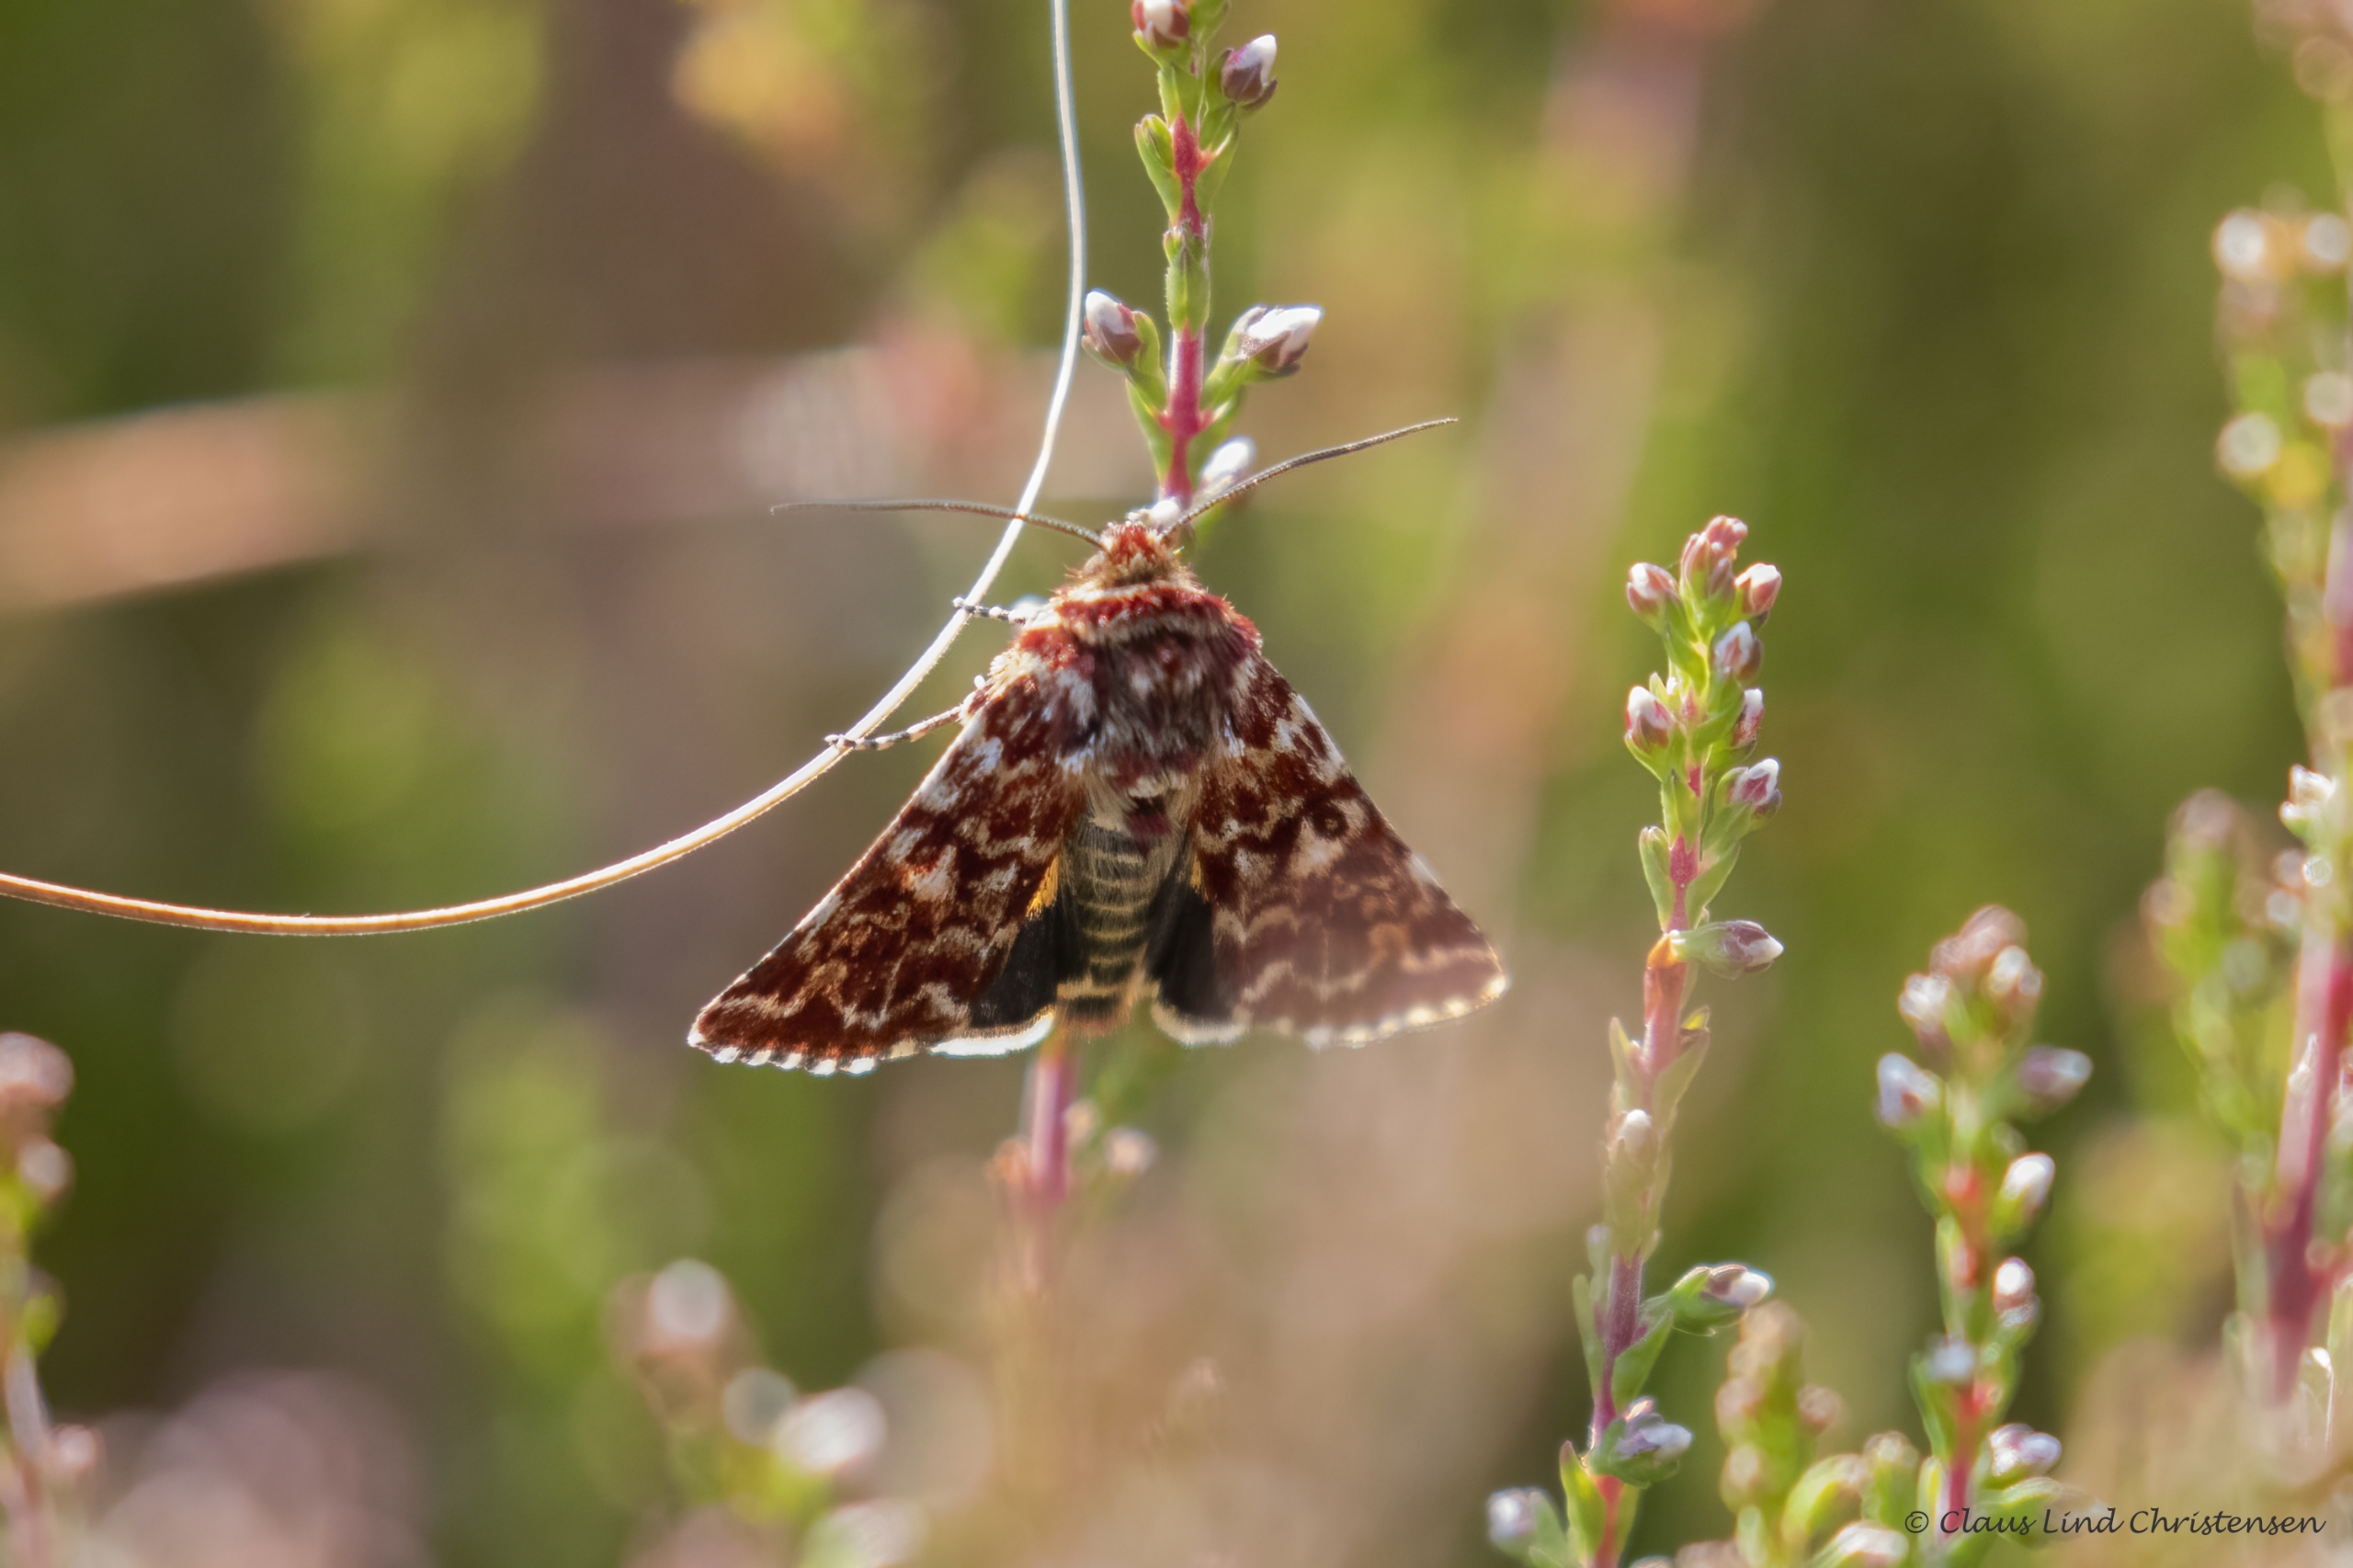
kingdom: Animalia
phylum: Arthropoda
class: Insecta
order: Lepidoptera
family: Noctuidae
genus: Anarta
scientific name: Anarta myrtilli
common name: Hvidplettet lyngugle
